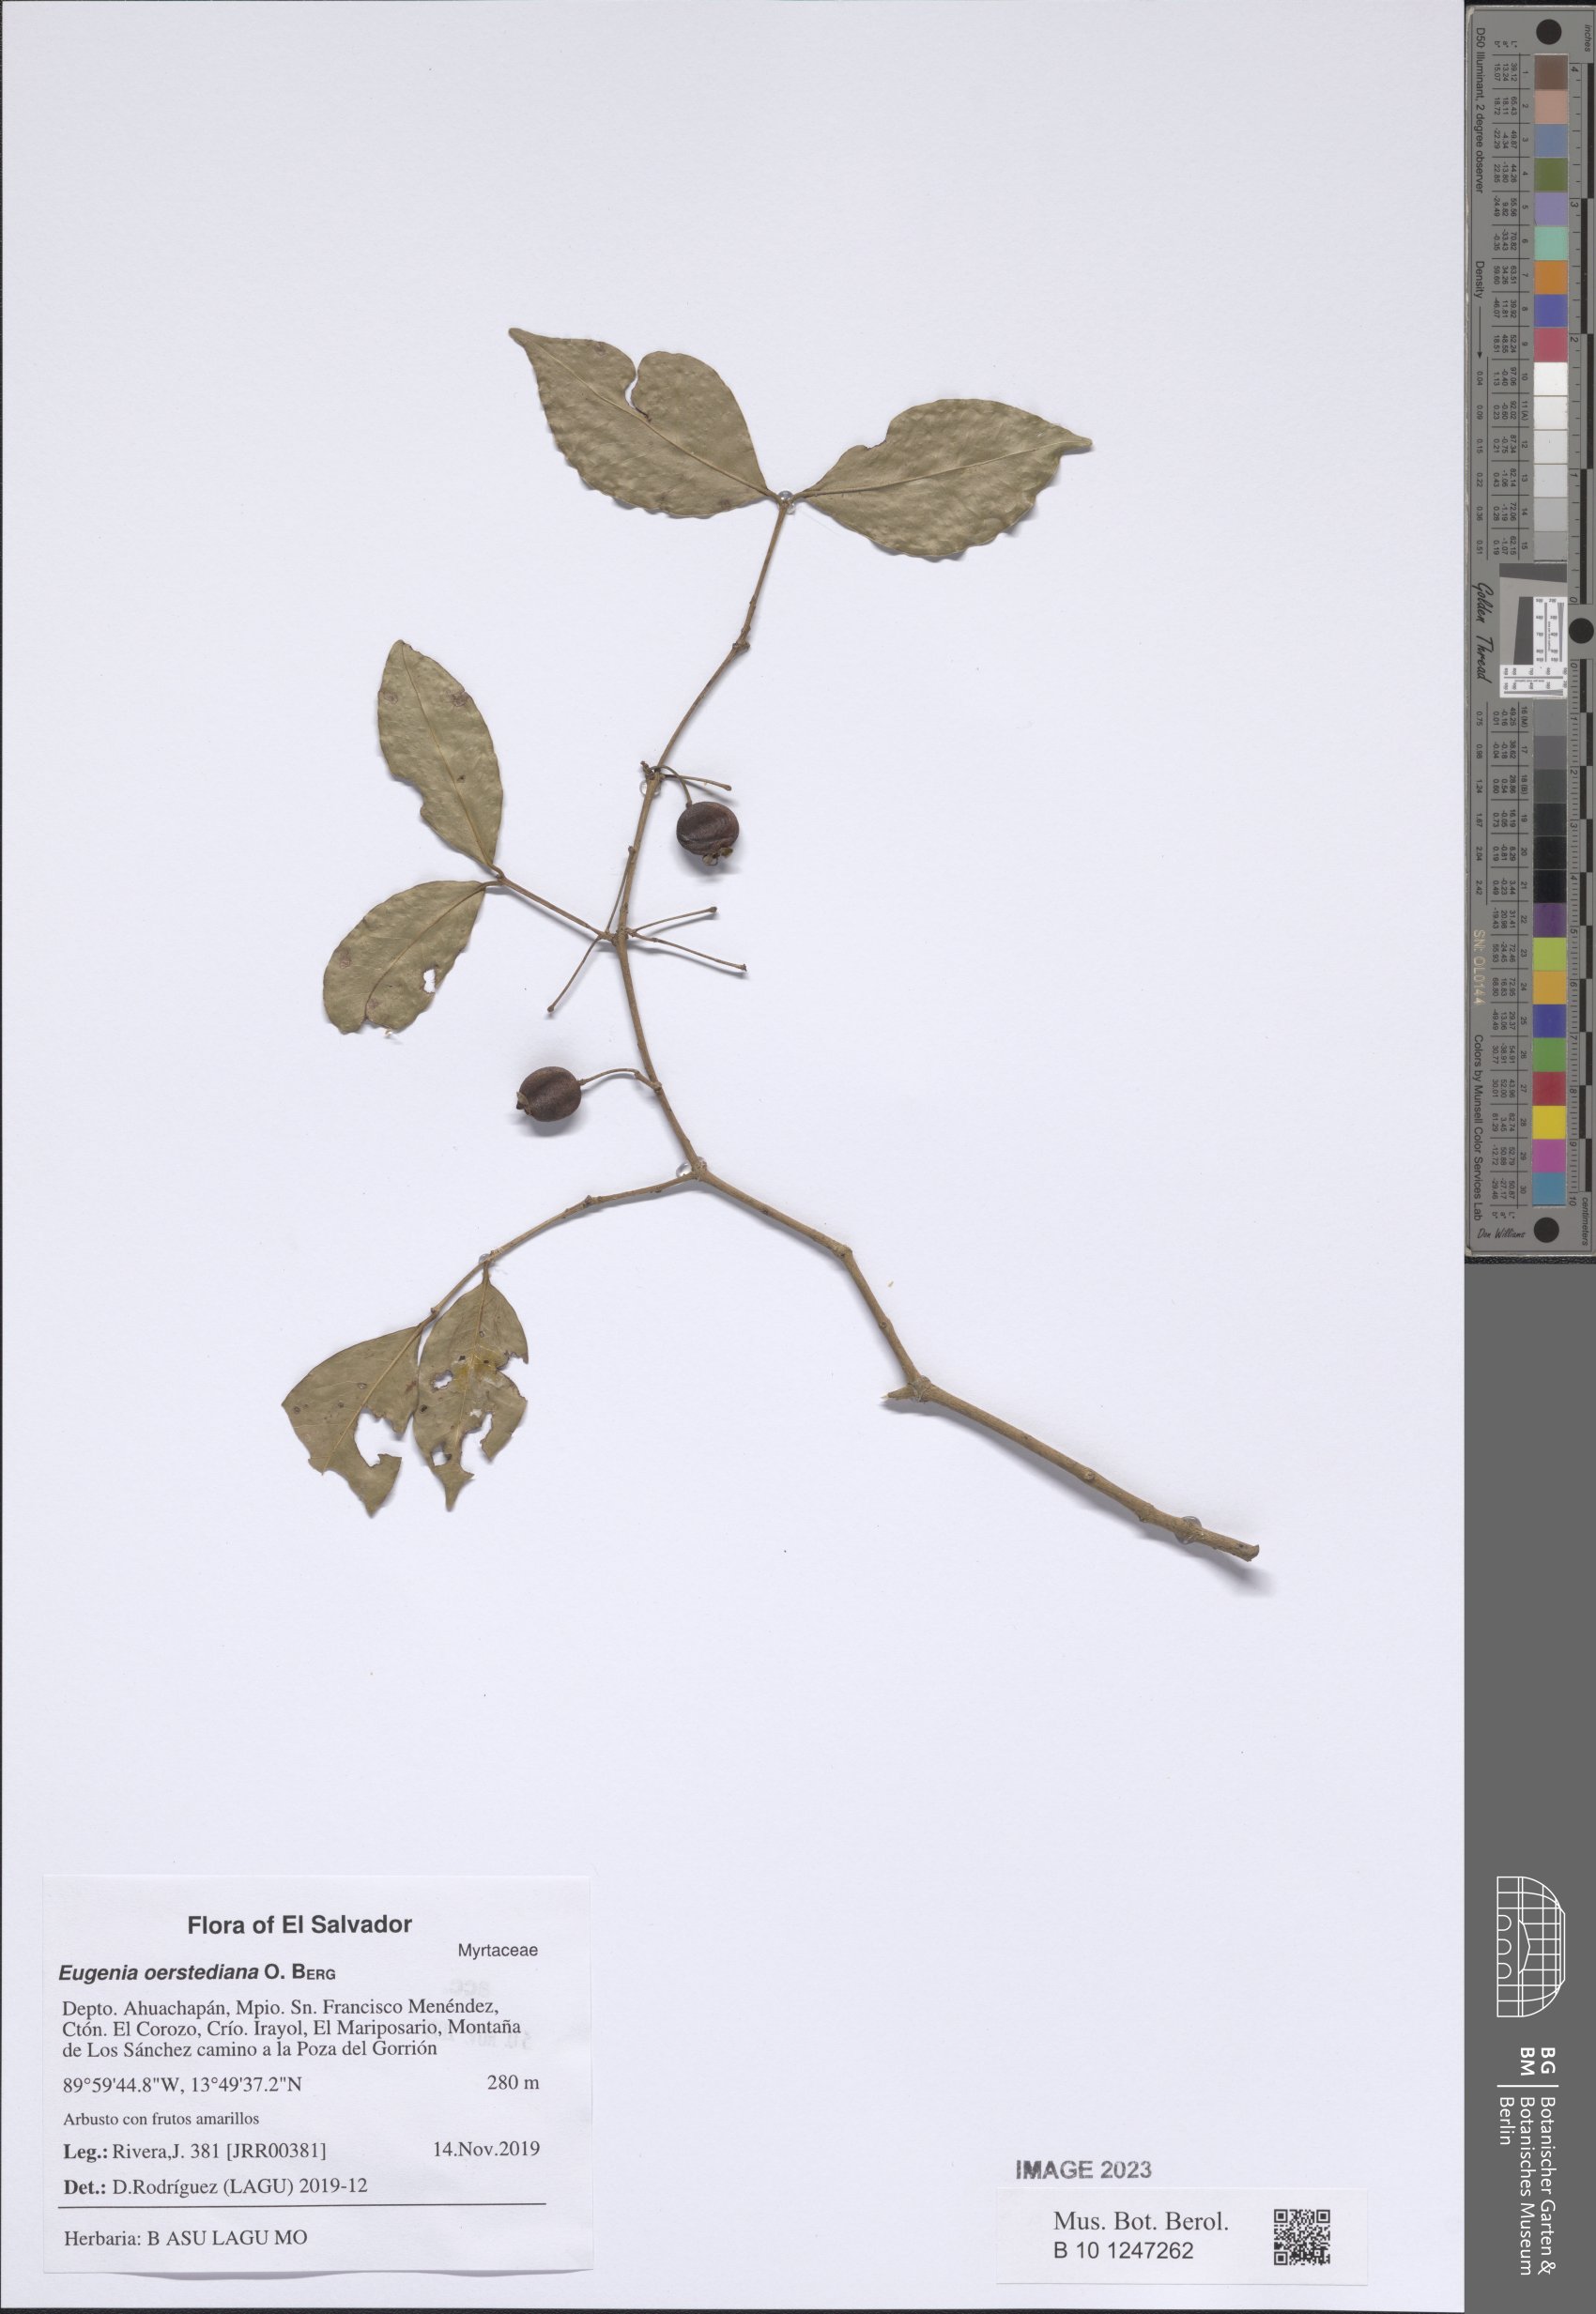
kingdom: Plantae
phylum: Tracheophyta
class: Magnoliopsida
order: Myrtales
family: Myrtaceae
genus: Eugenia
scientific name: Eugenia oerstediana
